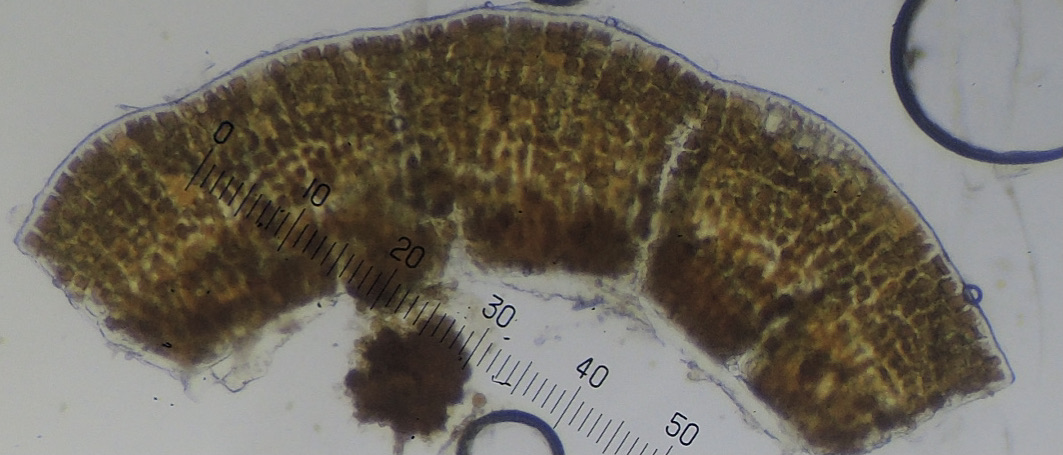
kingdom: Fungi
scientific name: Fungi
